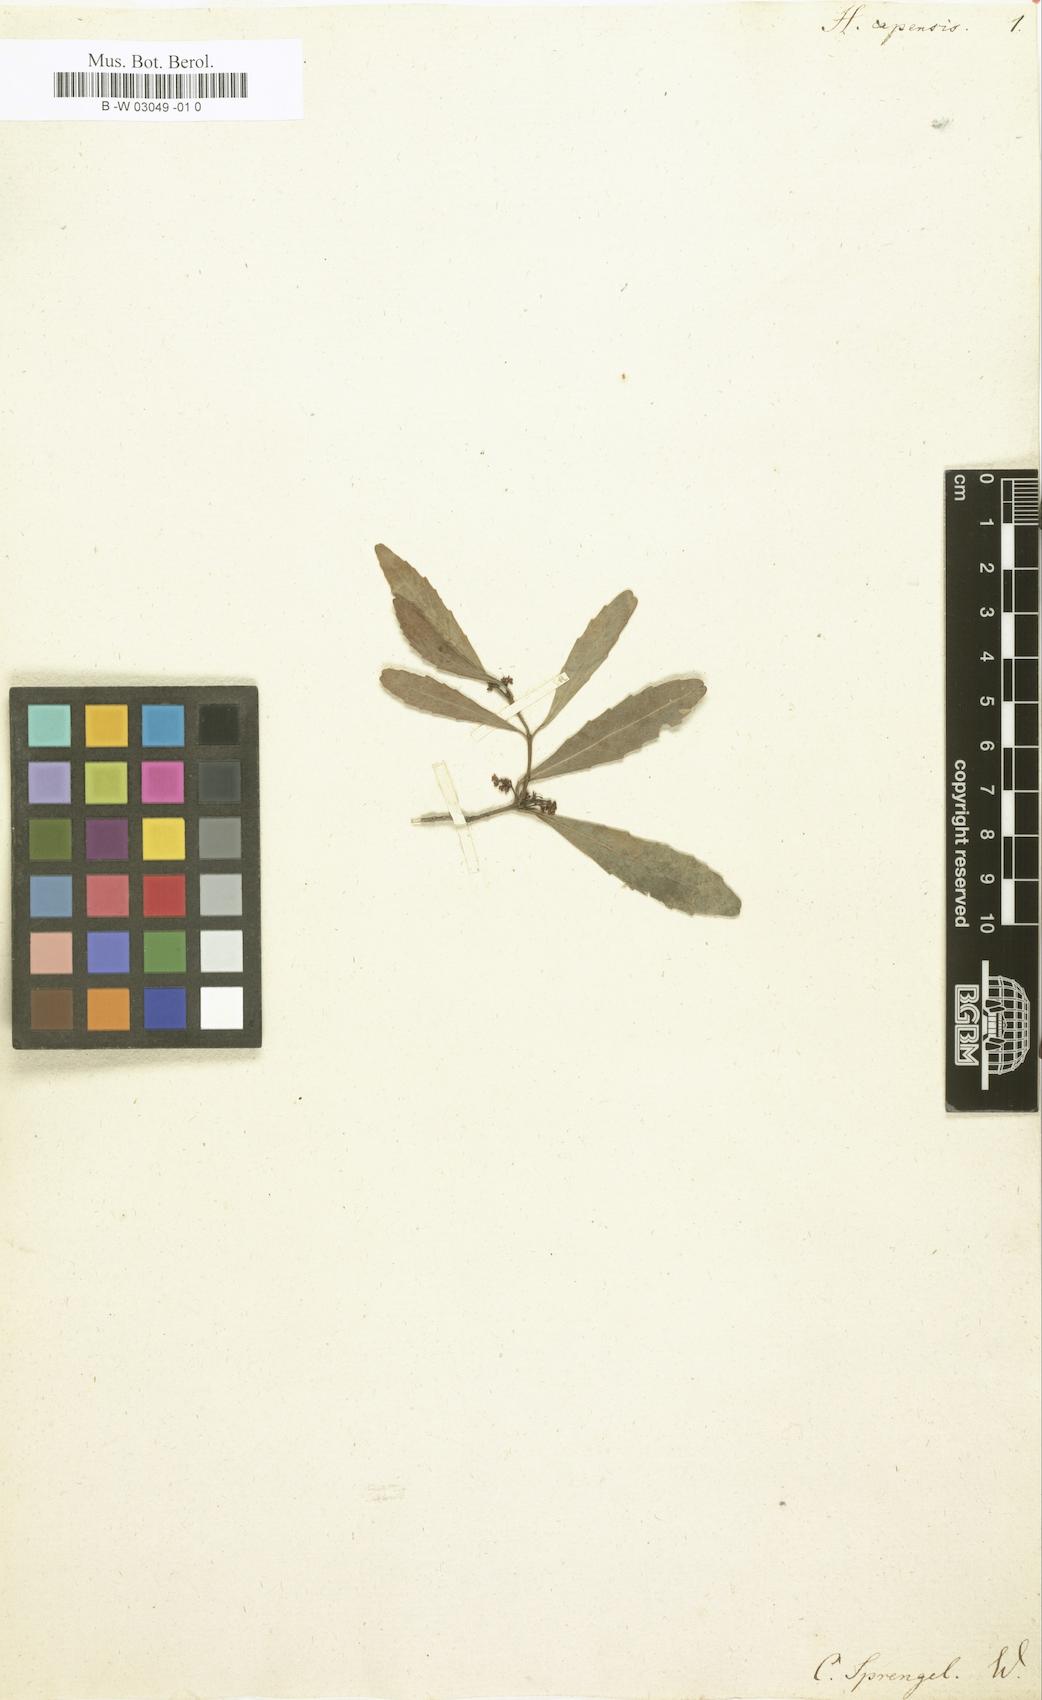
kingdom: Plantae
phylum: Tracheophyta
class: Magnoliopsida
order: Celastrales
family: Celastraceae
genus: Elaeodendron
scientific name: Elaeodendron schinoides
